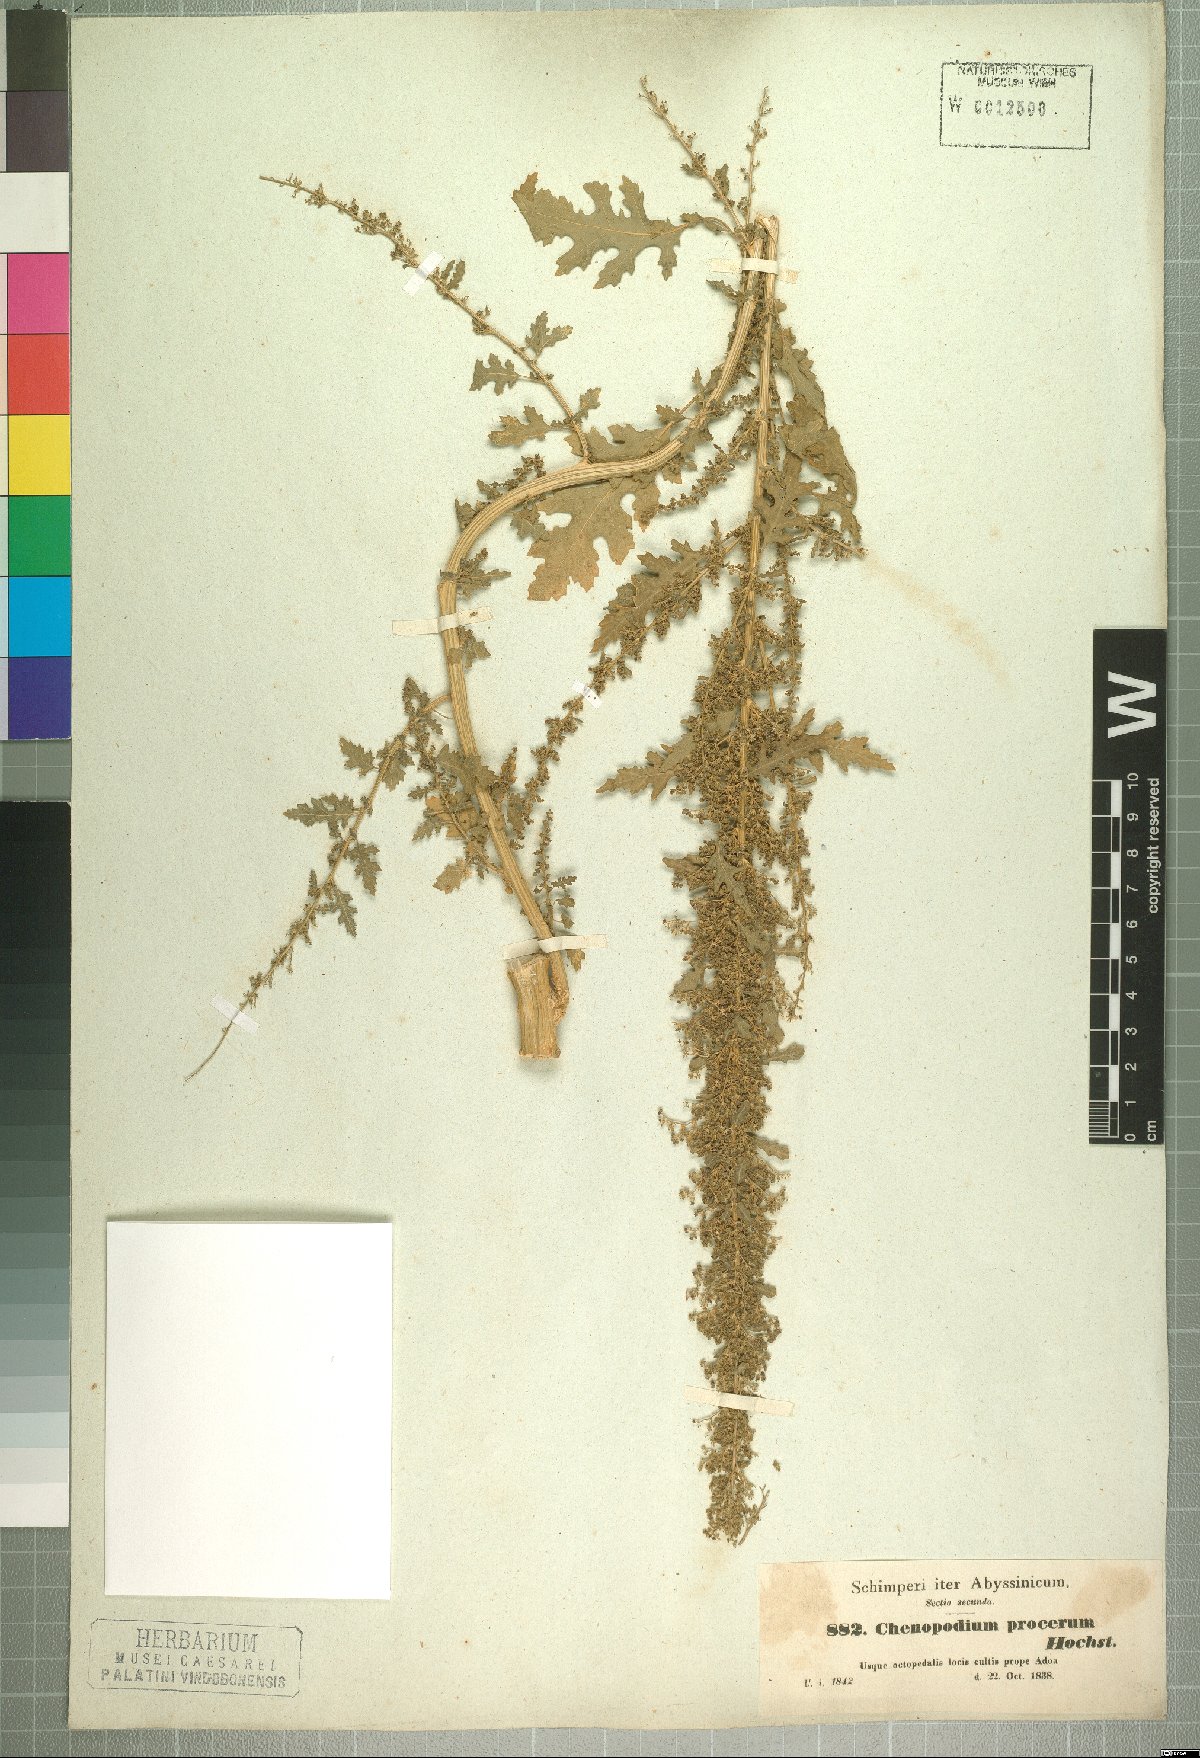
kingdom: Plantae
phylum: Tracheophyta
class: Magnoliopsida
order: Caryophyllales
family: Amaranthaceae
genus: Dysphania
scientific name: Dysphania procera
